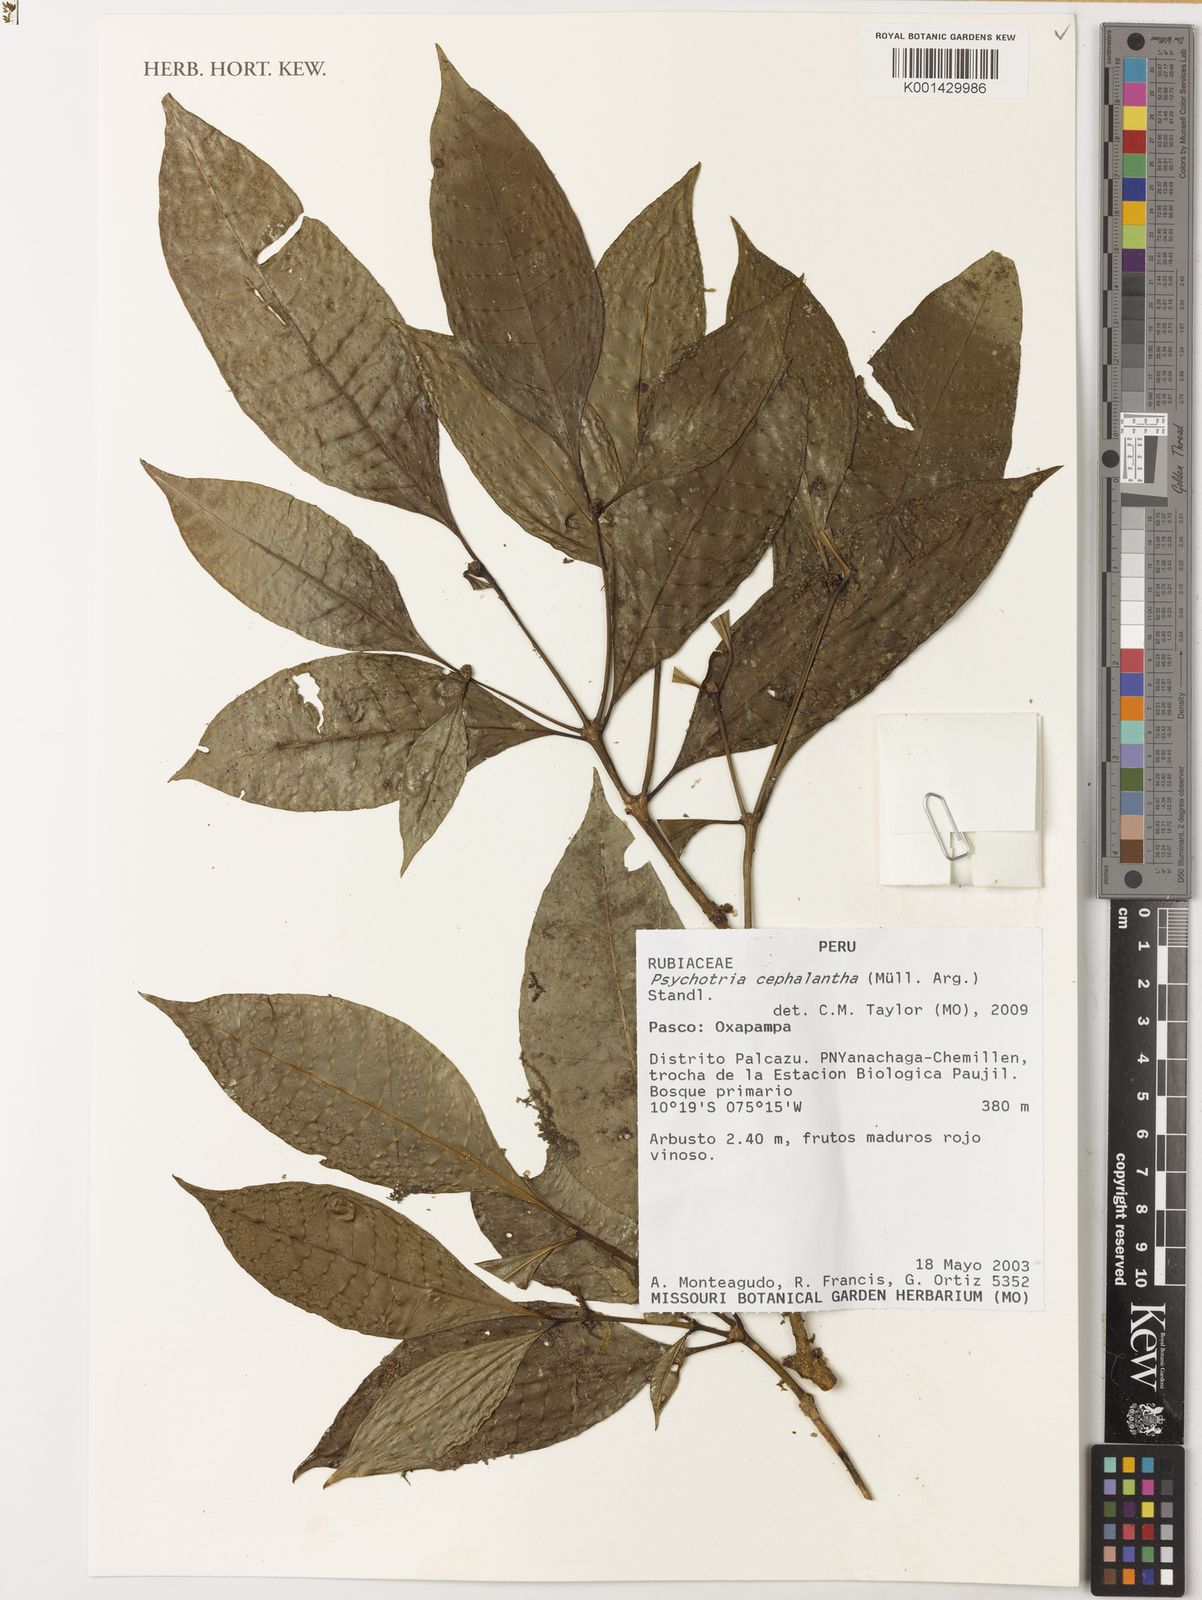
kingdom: Plantae
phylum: Tracheophyta
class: Magnoliopsida
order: Gentianales
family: Rubiaceae
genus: Psychotria
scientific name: Psychotria
